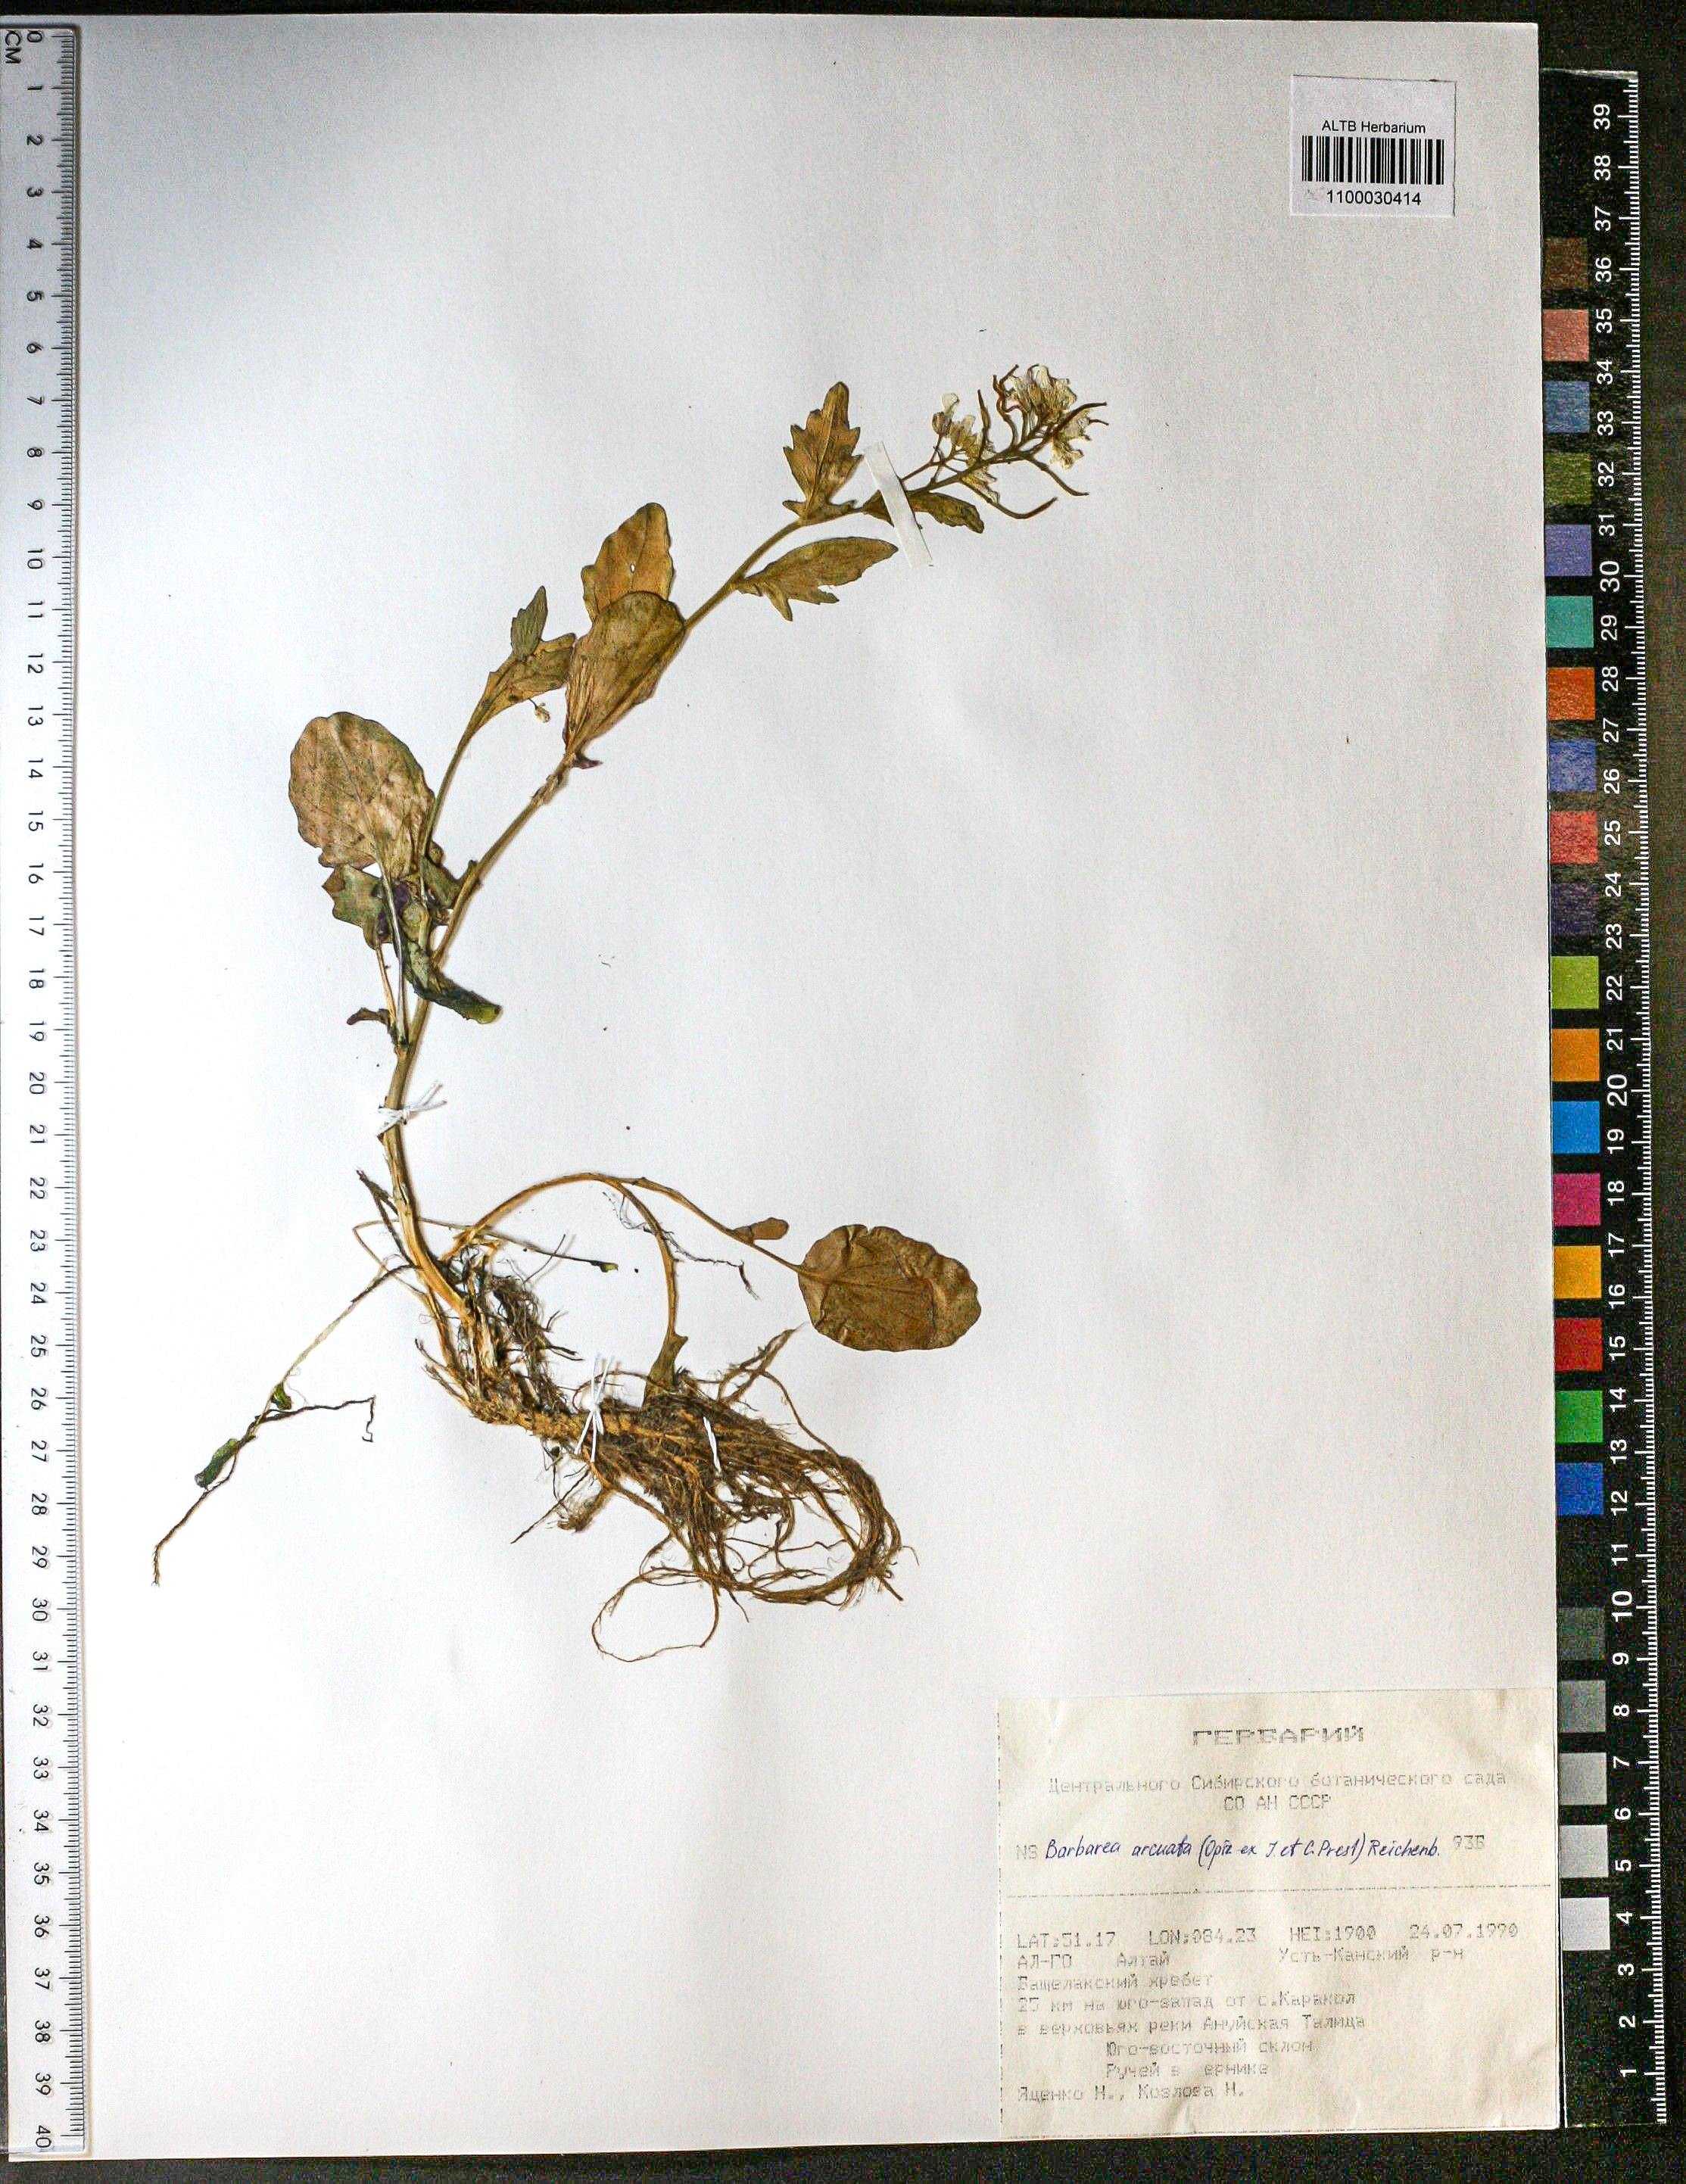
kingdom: Plantae
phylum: Tracheophyta
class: Magnoliopsida
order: Brassicales
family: Brassicaceae
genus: Barbarea
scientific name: Barbarea vulgaris
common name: Cressy-greens
